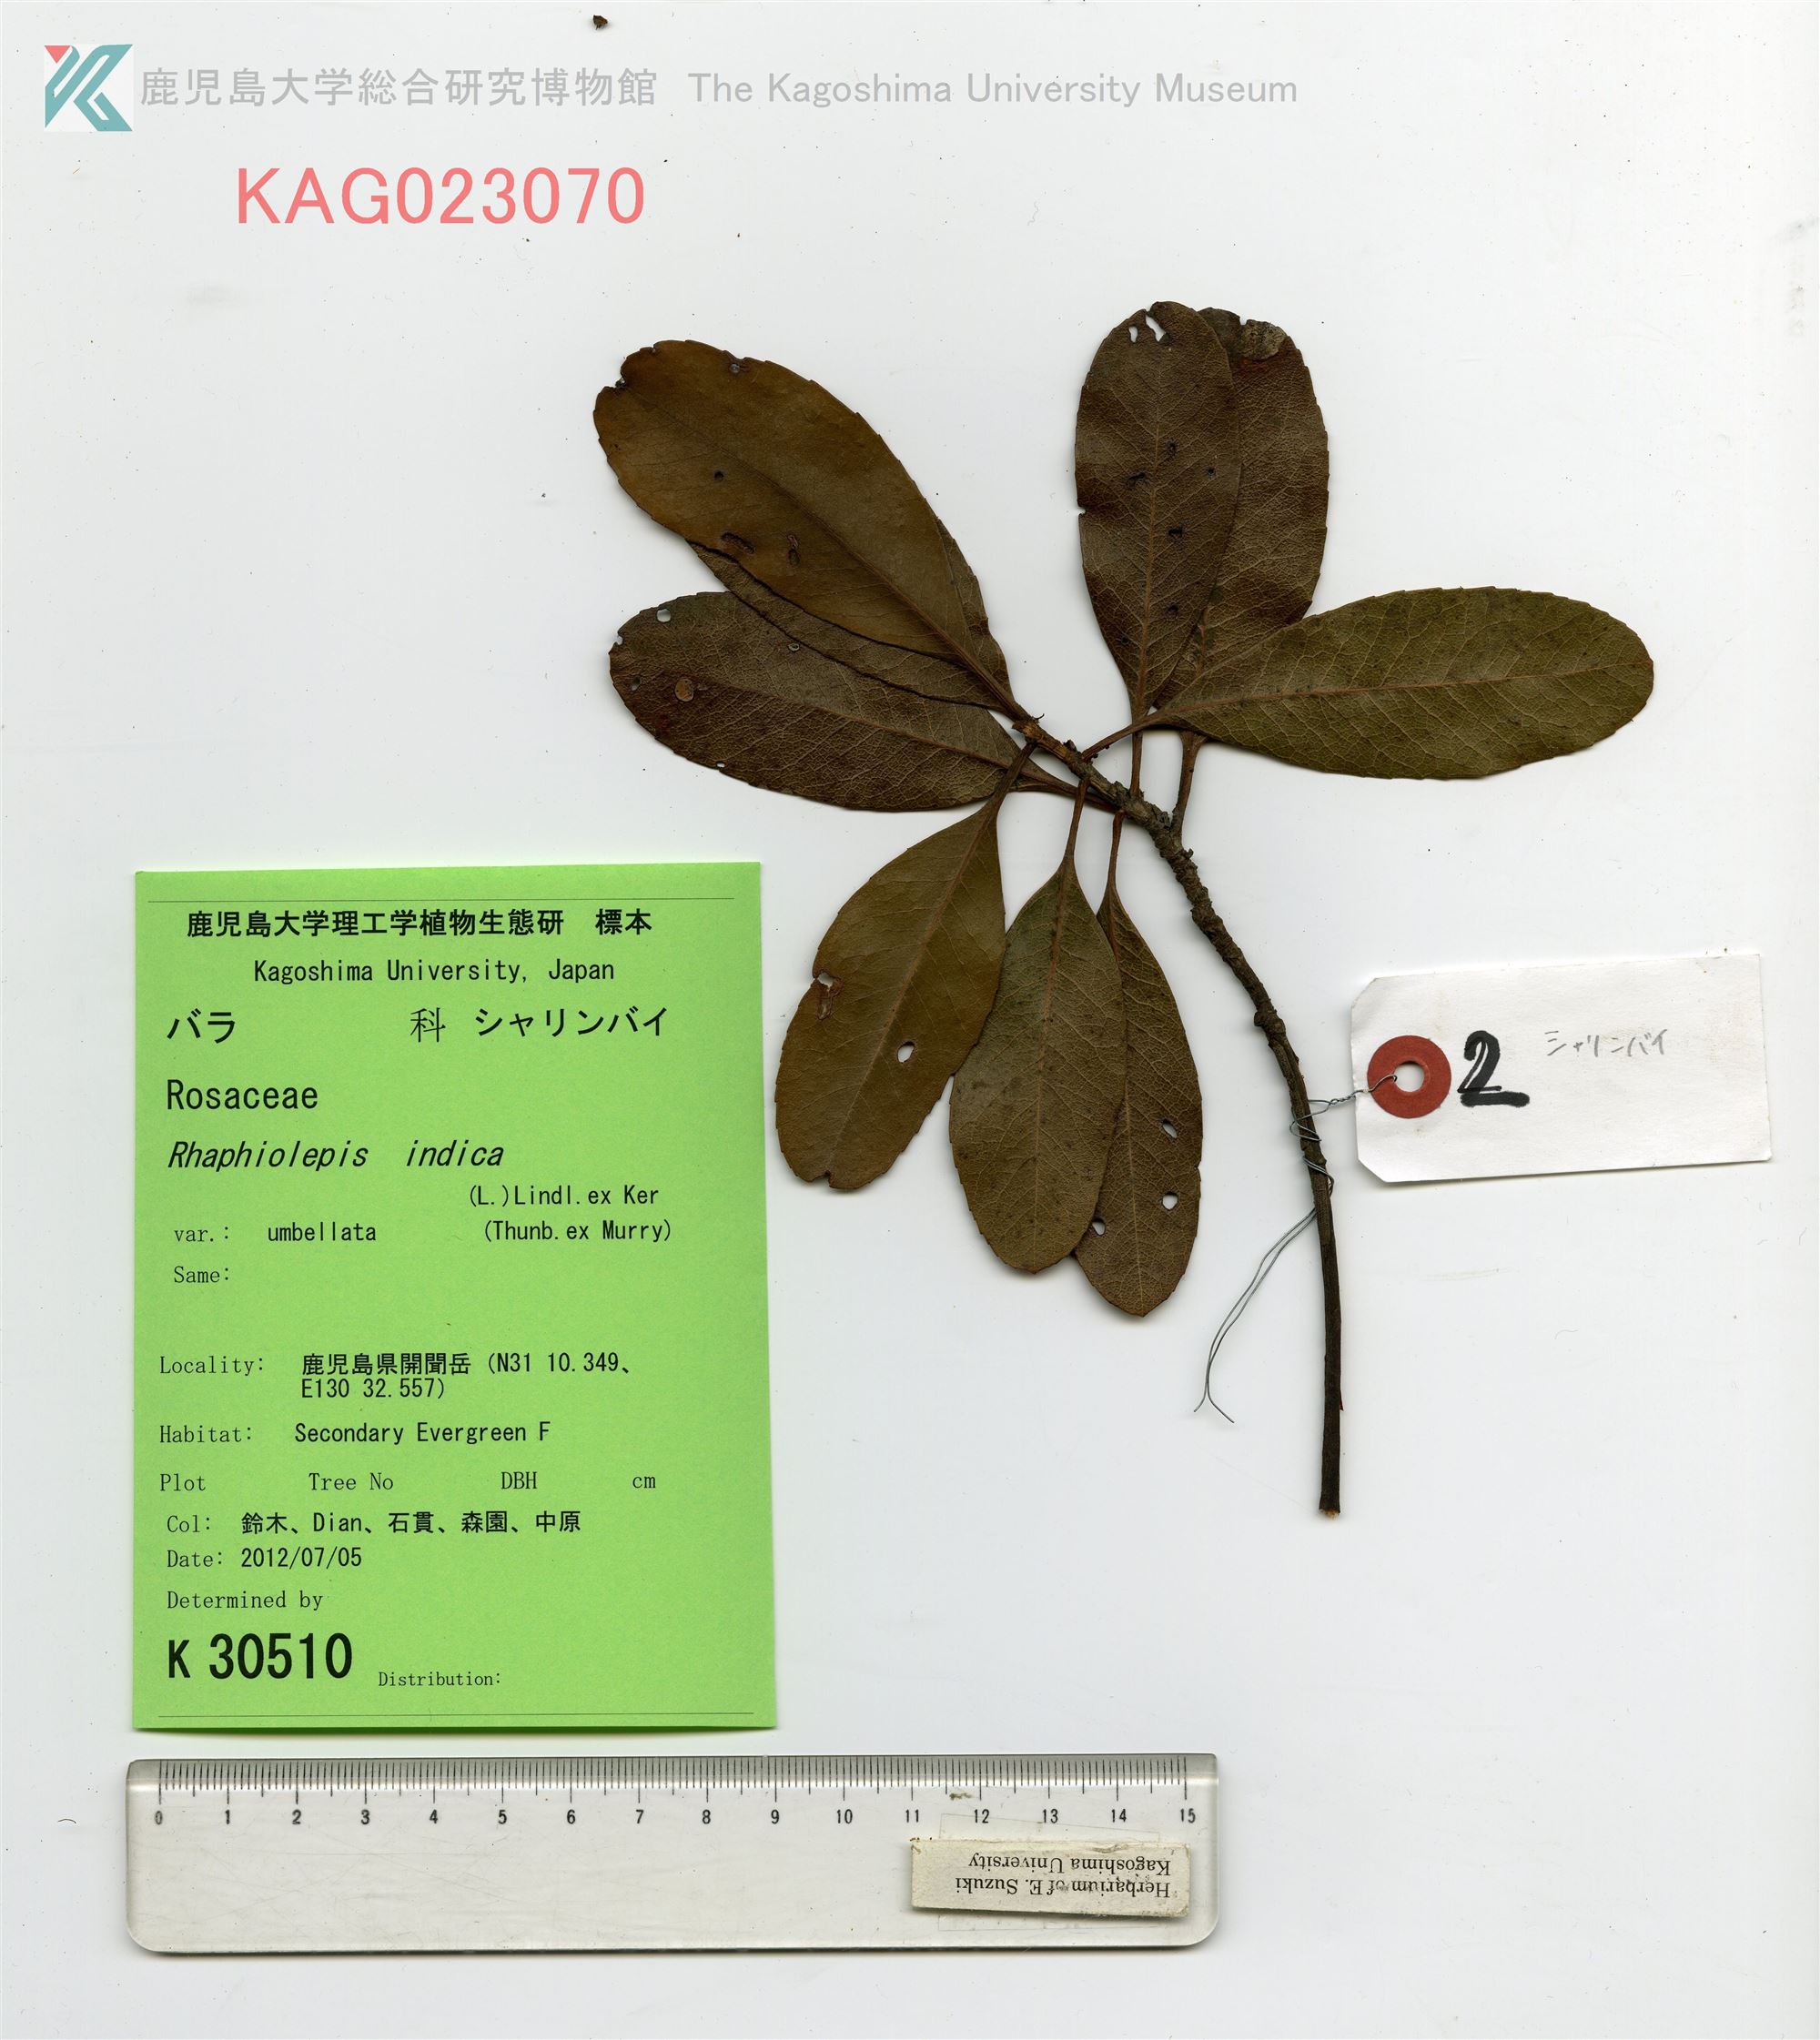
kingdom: Plantae
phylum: Tracheophyta
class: Magnoliopsida
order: Rosales
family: Rosaceae
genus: Rhaphiolepis
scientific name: Rhaphiolepis umbellata
